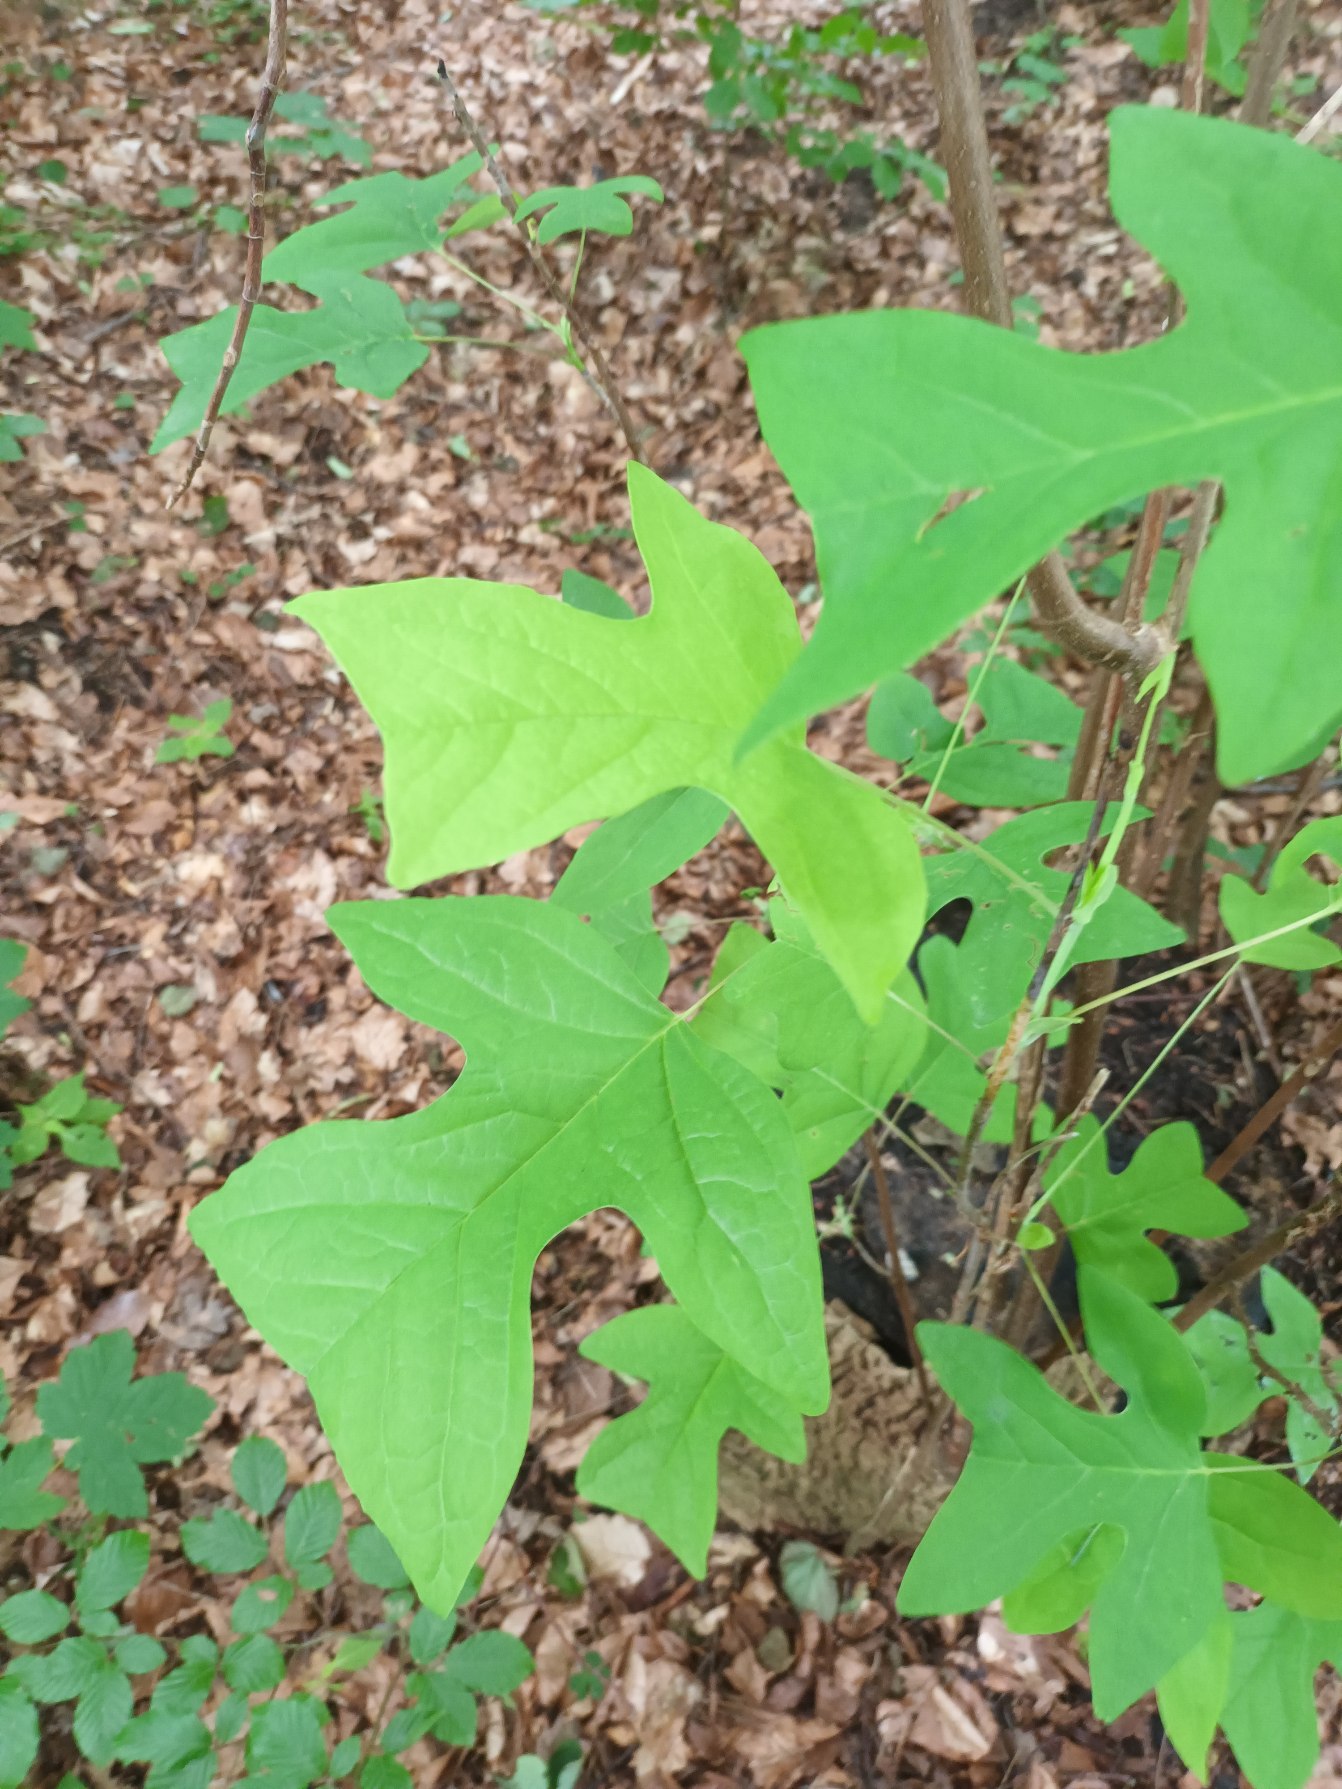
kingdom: Plantae
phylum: Tracheophyta
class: Magnoliopsida
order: Magnoliales
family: Magnoliaceae
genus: Liriodendron
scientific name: Liriodendron tulipifera
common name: Tulipantræ
